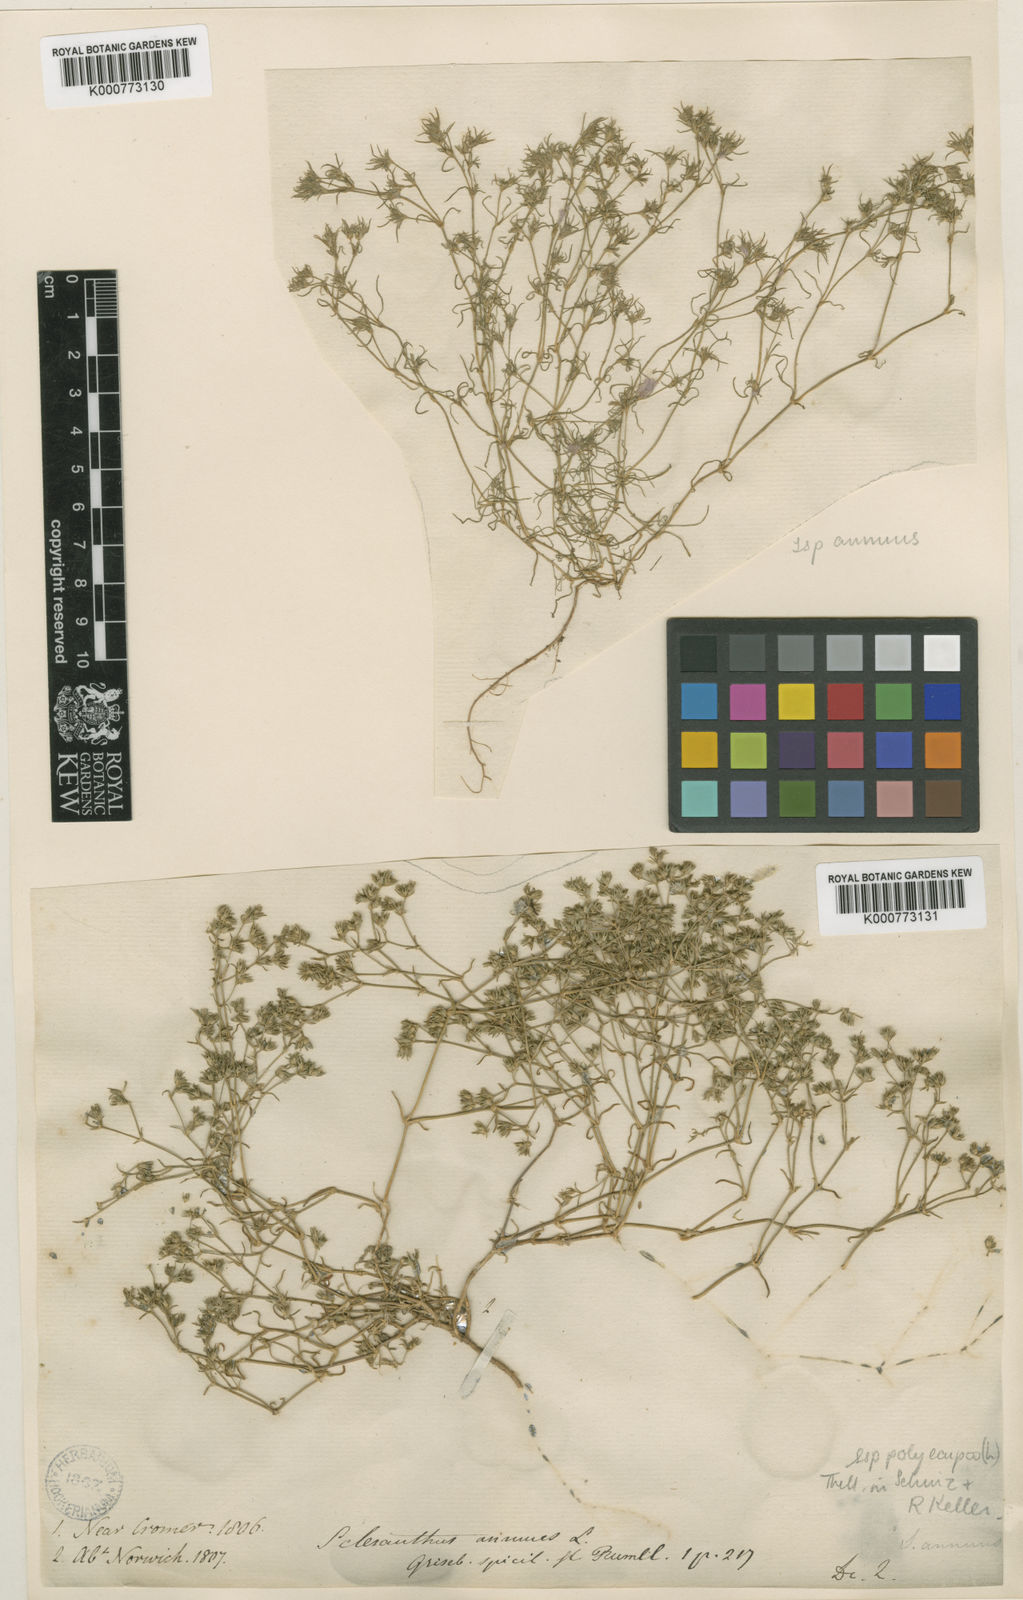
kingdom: Plantae
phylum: Tracheophyta
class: Magnoliopsida
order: Caryophyllales
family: Caryophyllaceae
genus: Scleranthus
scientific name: Scleranthus annuus
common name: Annual knawel
